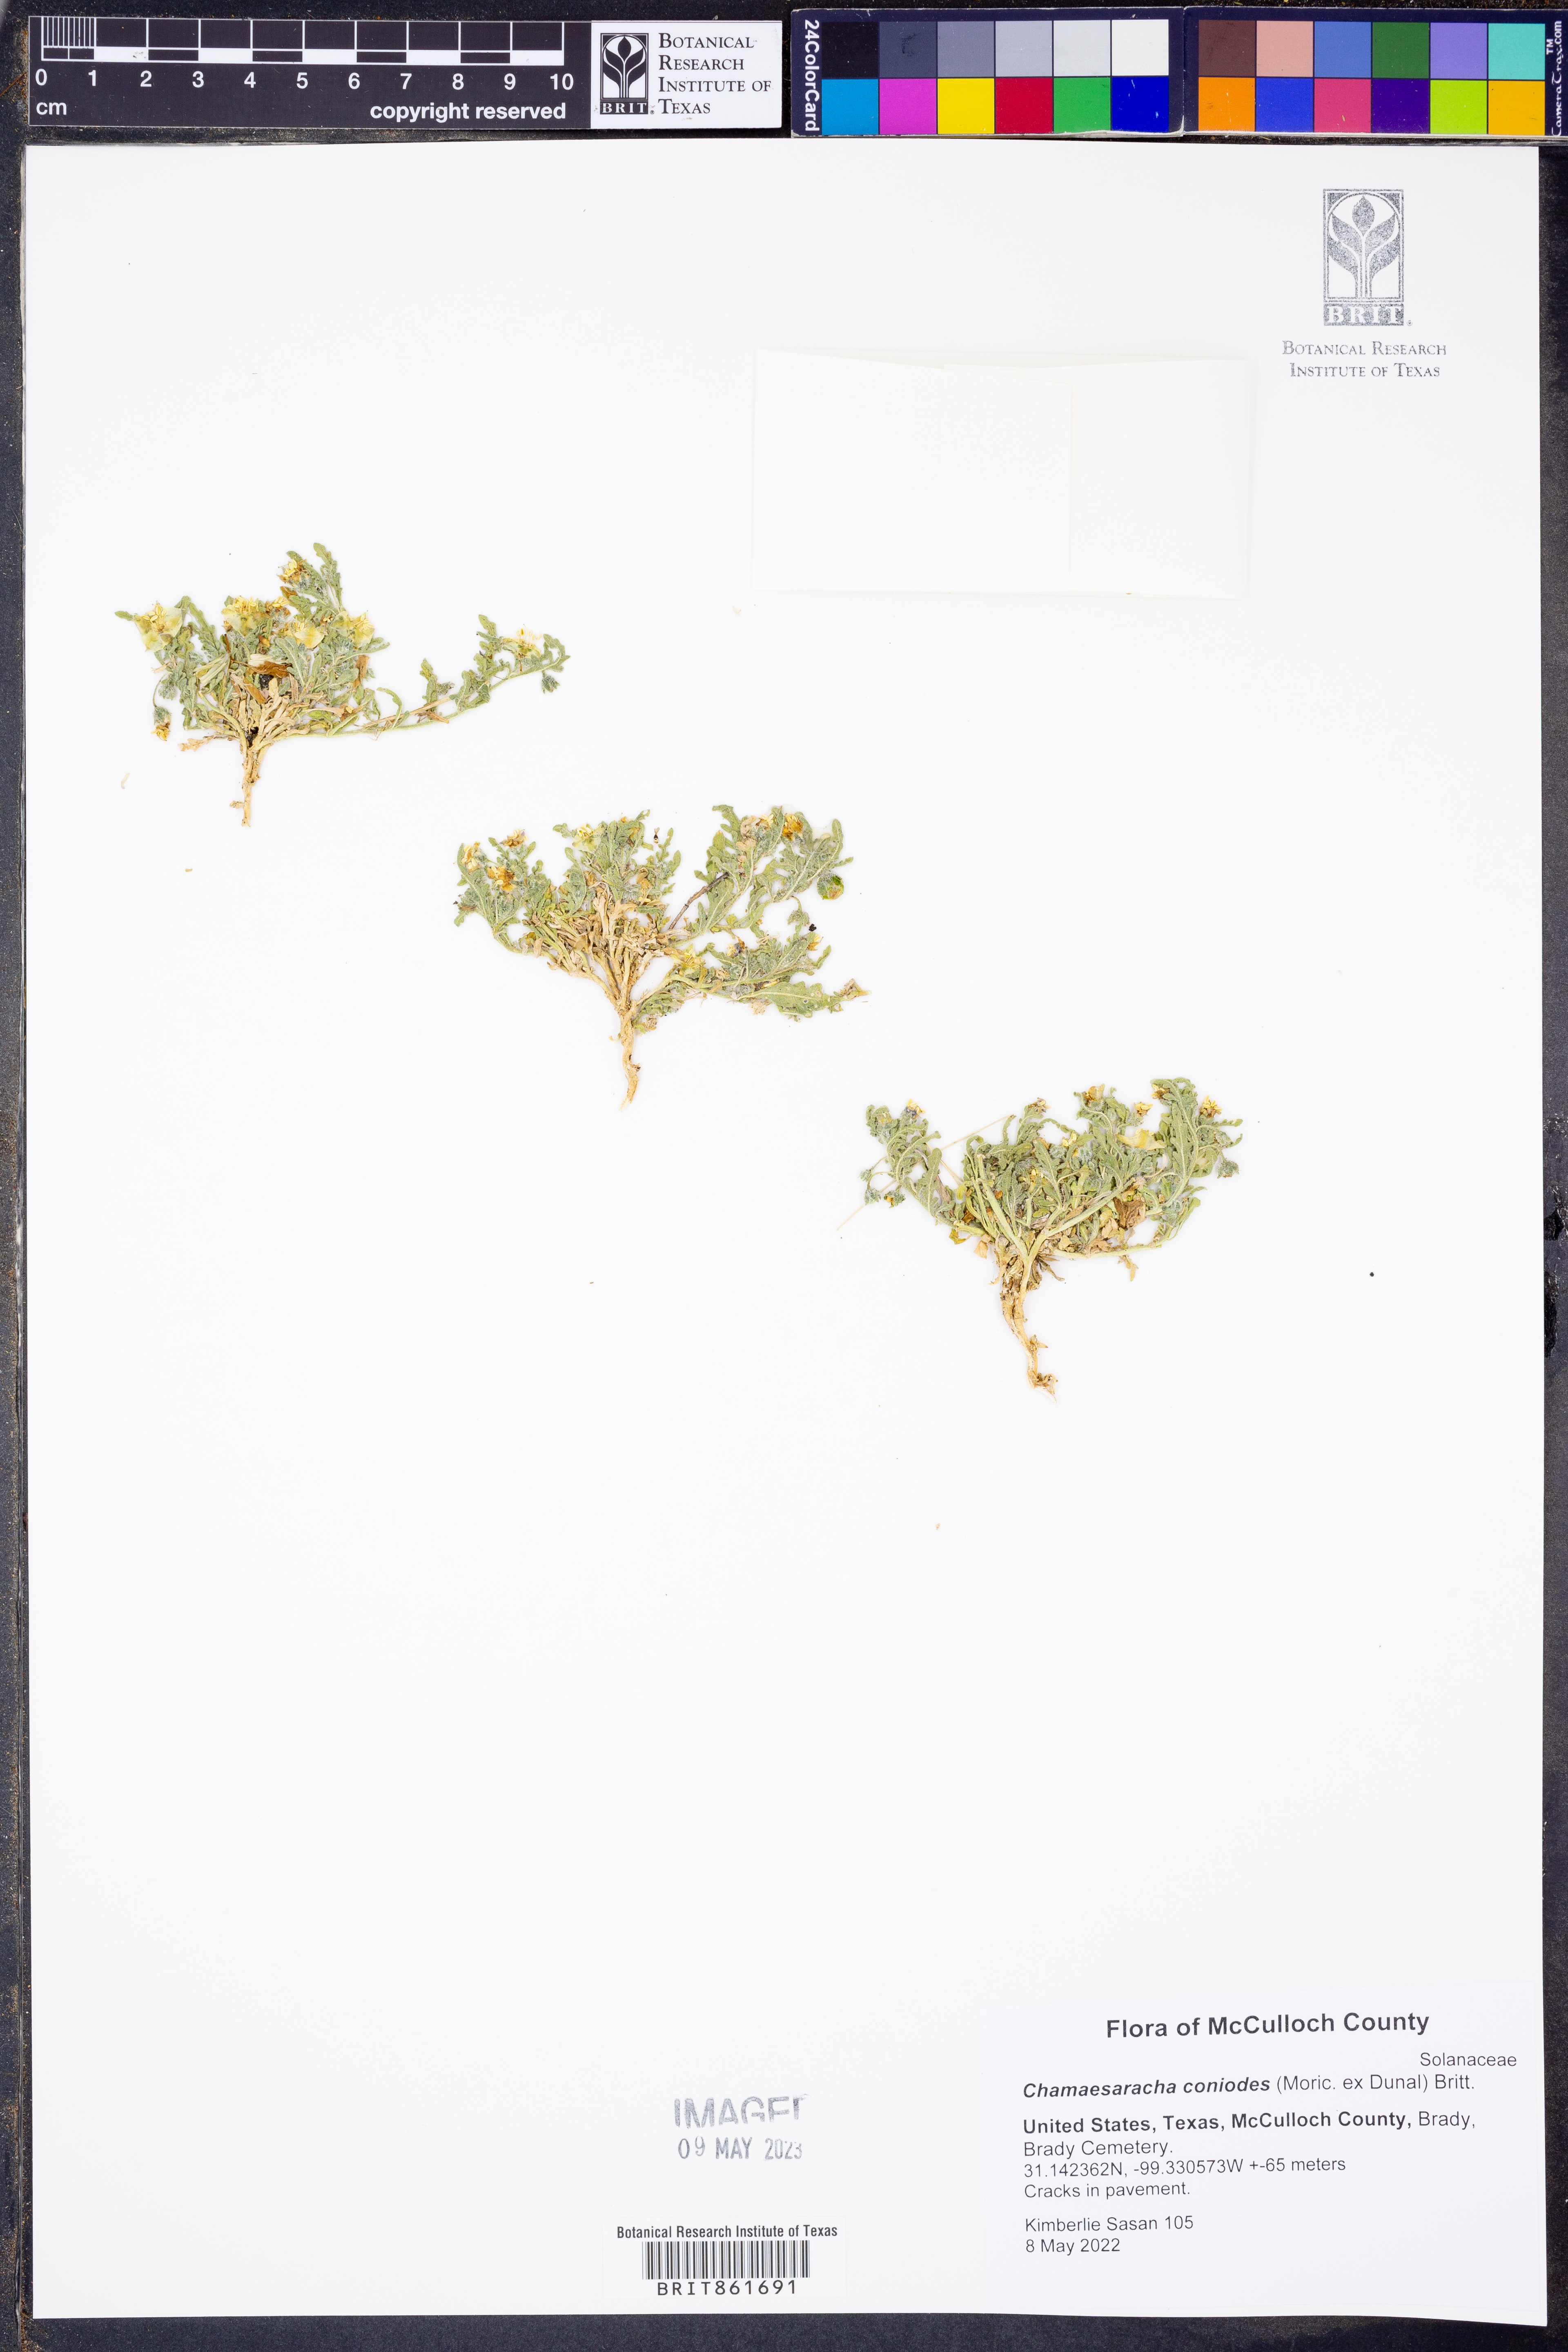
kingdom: Plantae
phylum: Tracheophyta
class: Magnoliopsida
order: Solanales
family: Solanaceae
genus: Chamaesaracha
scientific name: Chamaesaracha coniodes
